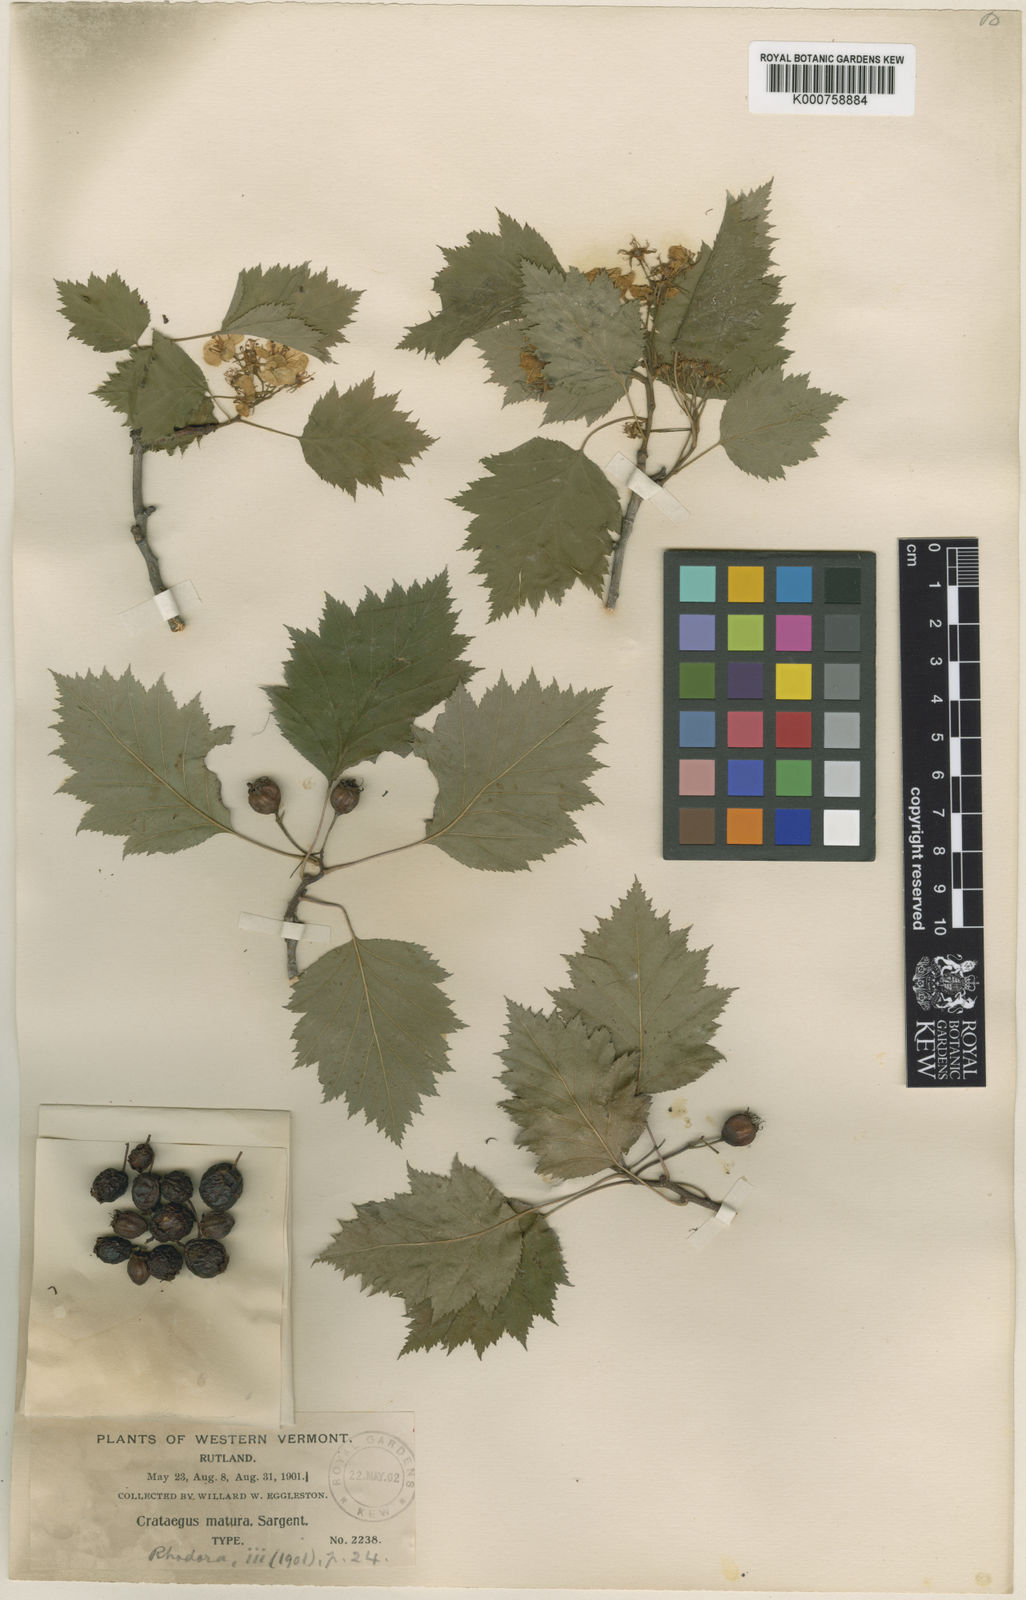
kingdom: Plantae
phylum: Tracheophyta
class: Magnoliopsida
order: Rosales
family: Rosaceae
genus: Crataegus
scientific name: Crataegus macrosperma
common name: Variable hawthorn
